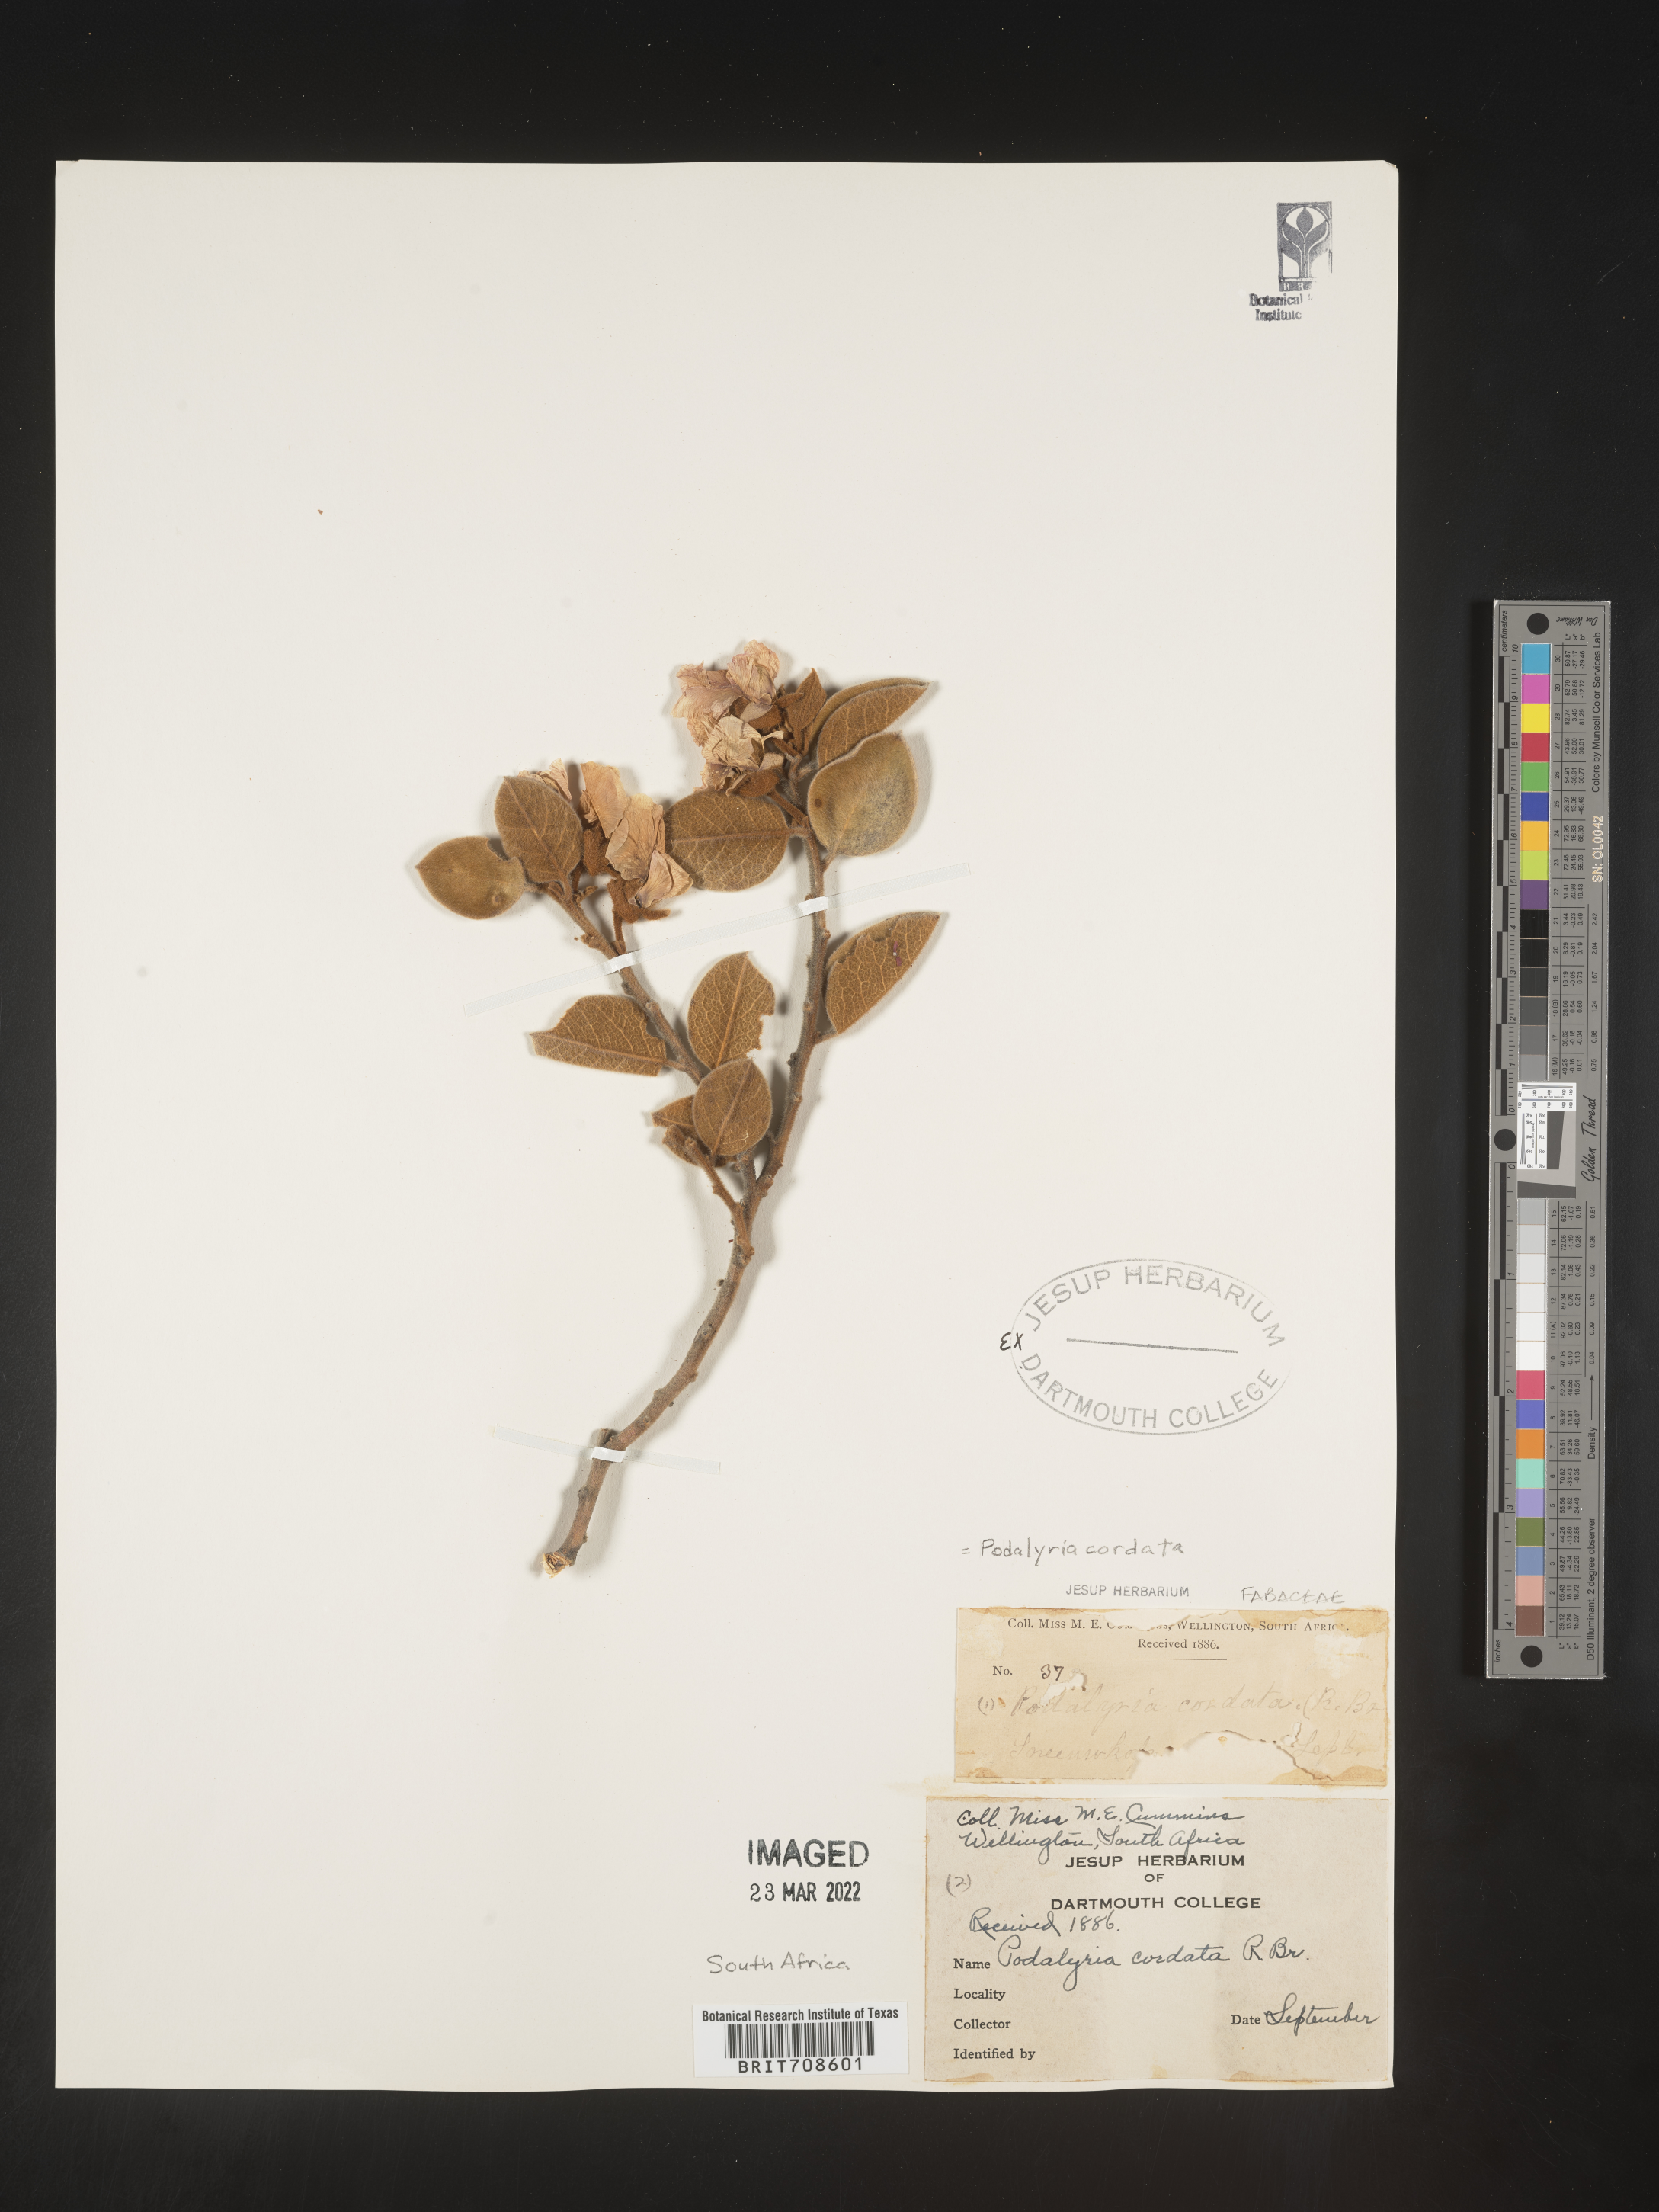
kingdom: Plantae
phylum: Tracheophyta
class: Magnoliopsida
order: Fabales
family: Fabaceae
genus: Podalyria
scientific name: Podalyria
